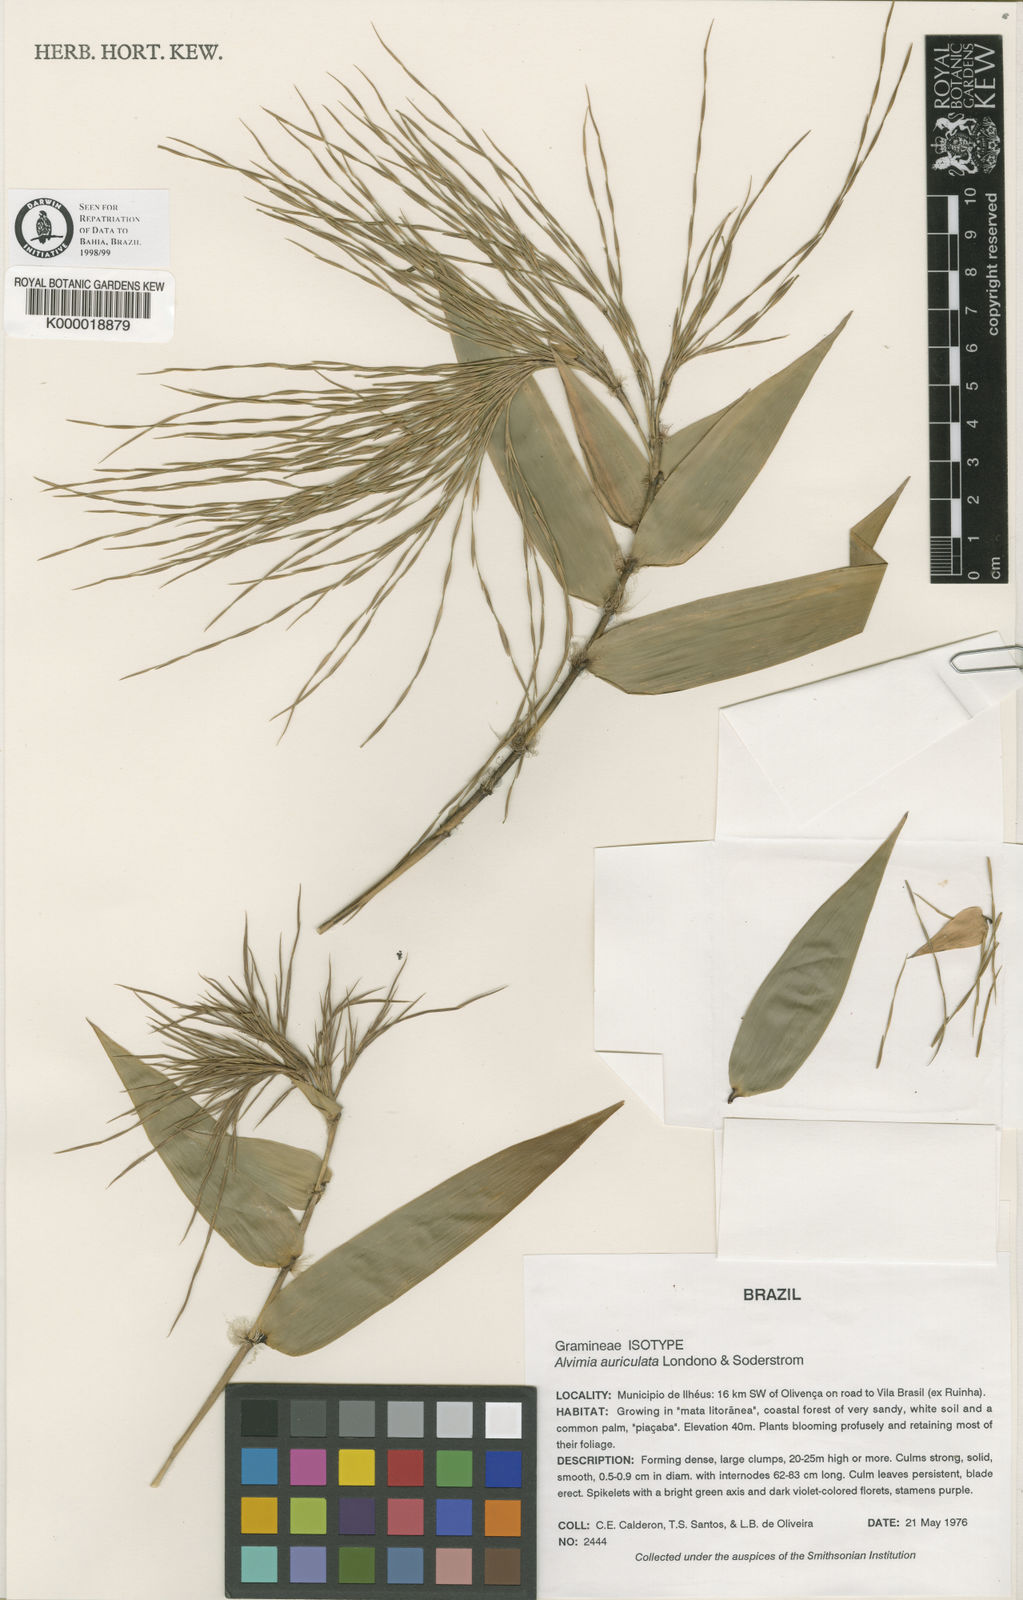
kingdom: Plantae
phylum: Tracheophyta
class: Liliopsida
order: Poales
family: Poaceae
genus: Alvimia
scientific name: Alvimia
